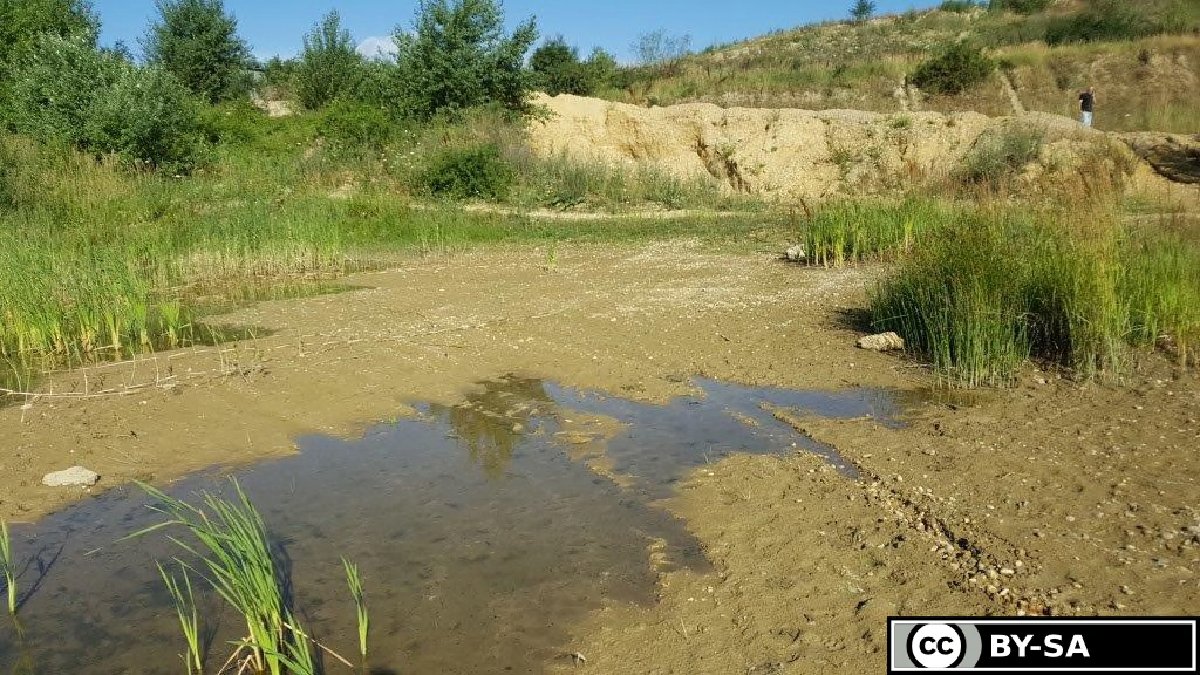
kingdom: Plantae
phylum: Tracheophyta
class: Liliopsida
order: Poales
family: Cyperaceae
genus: Schoenoplectiella
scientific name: Schoenoplectiella mucronata
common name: Bog bulrush
